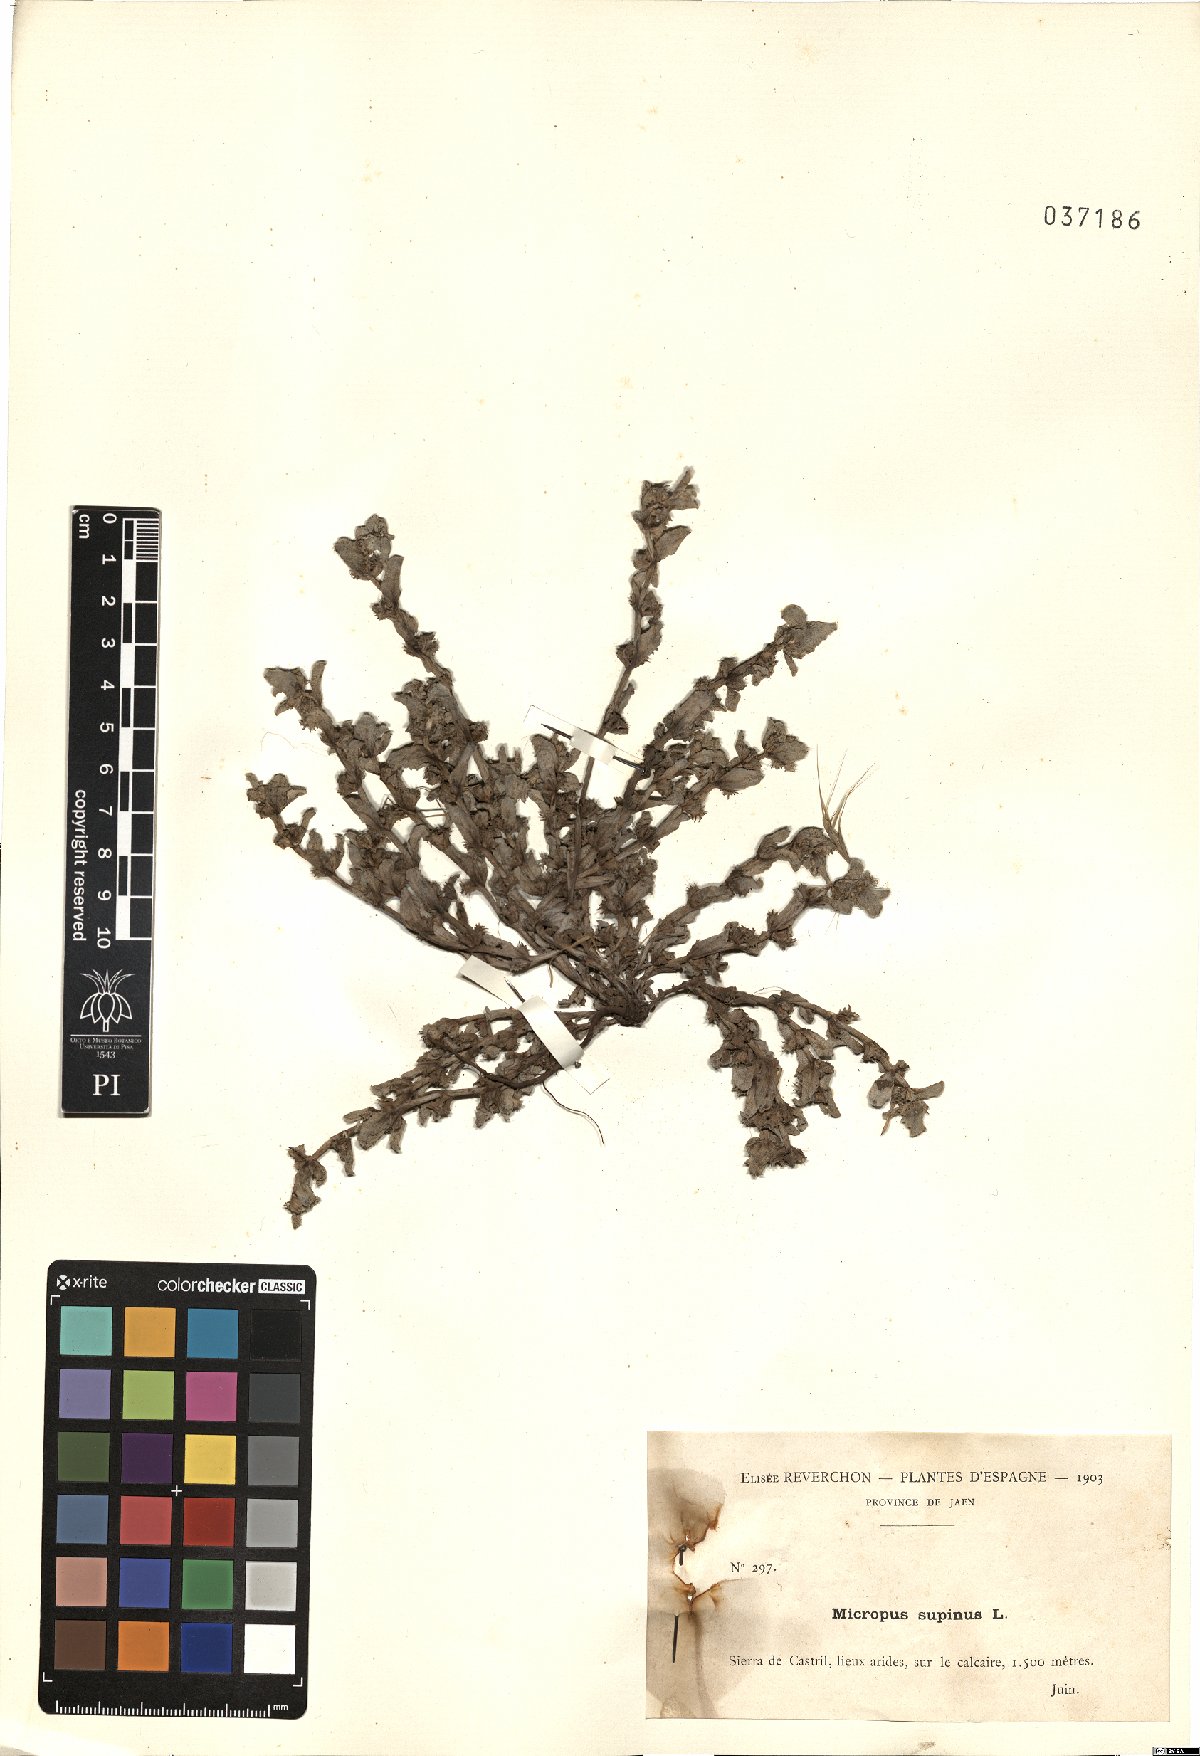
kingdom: Plantae
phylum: Tracheophyta
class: Magnoliopsida
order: Asterales
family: Asteraceae
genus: Micropus
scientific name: Micropus supinus
